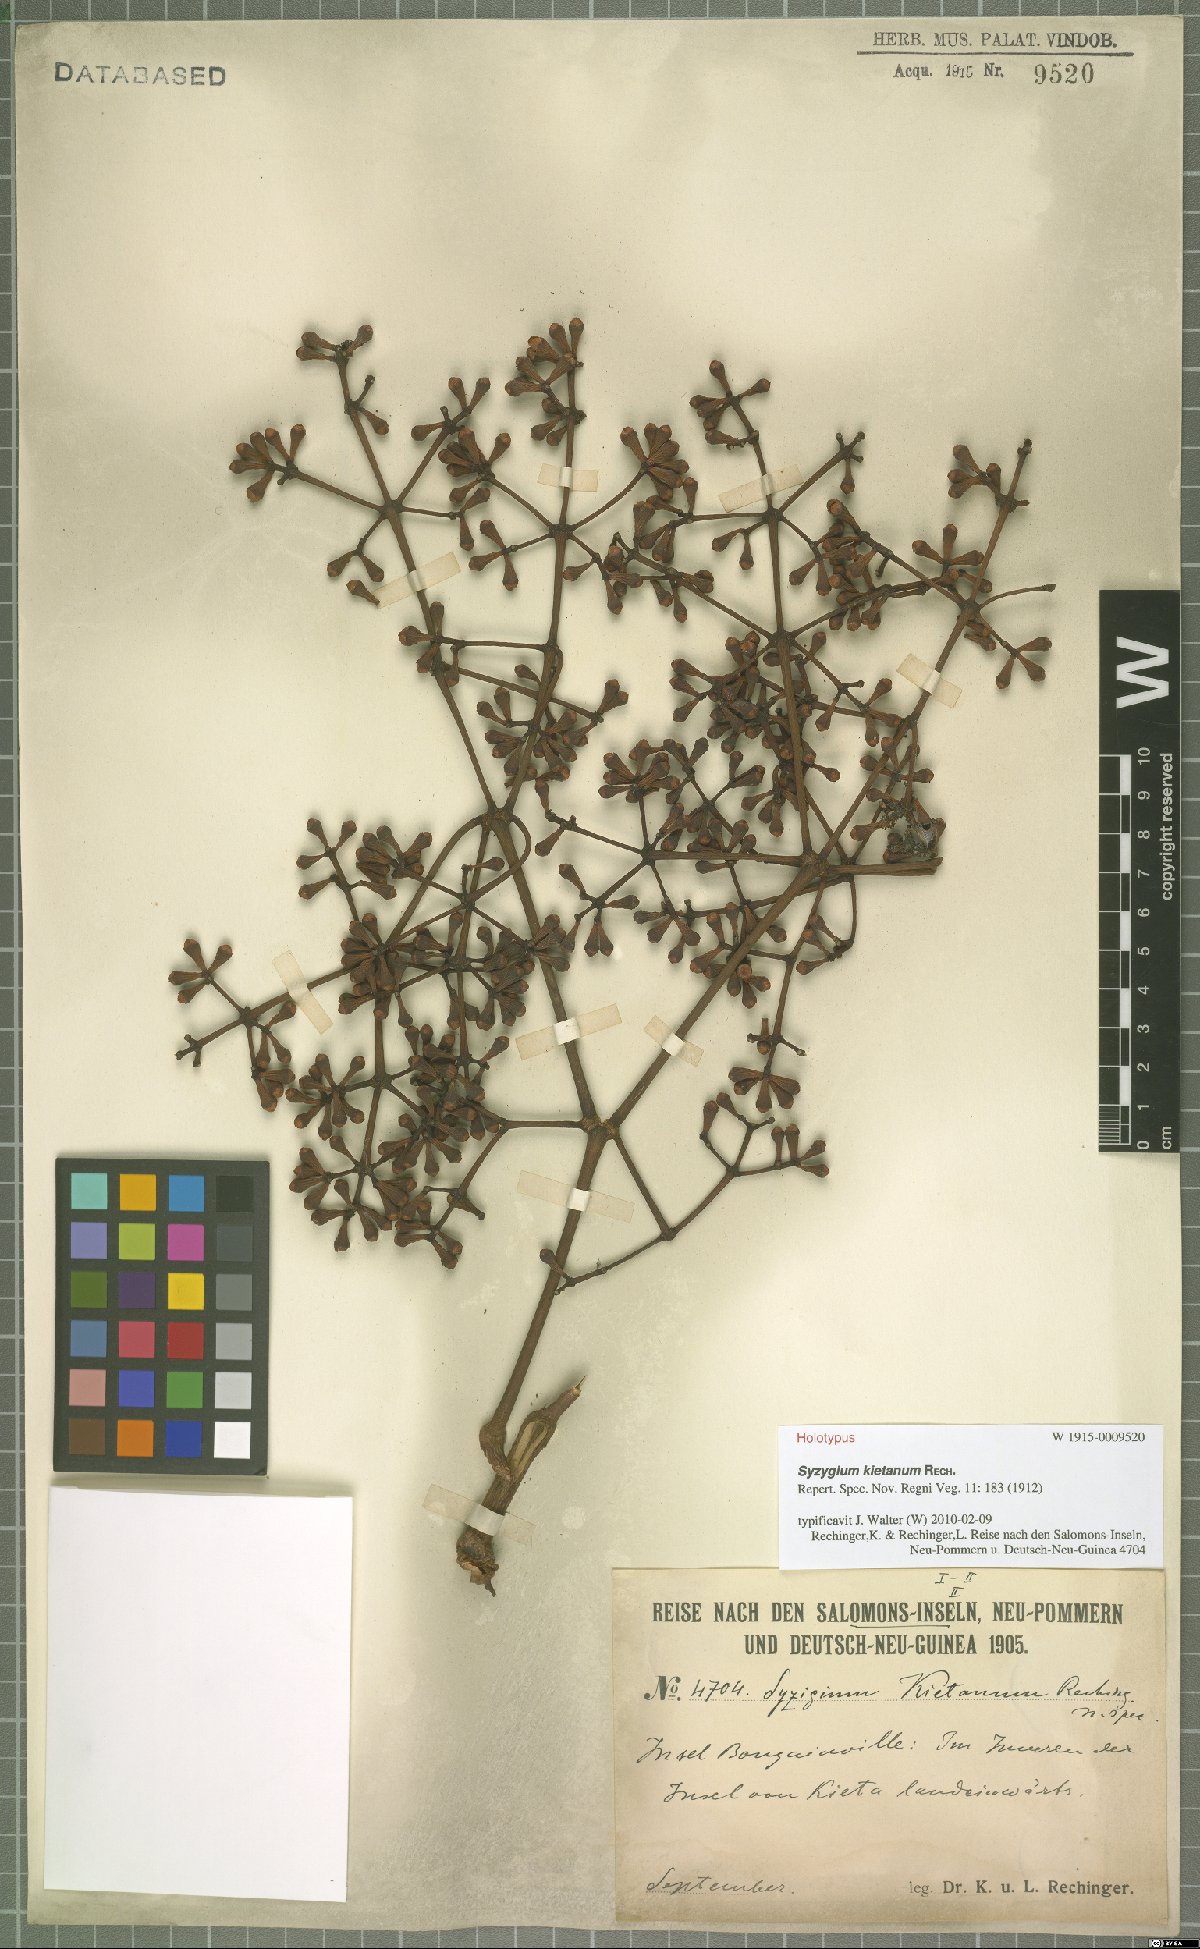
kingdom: Plantae
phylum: Tracheophyta
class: Magnoliopsida
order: Myrtales
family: Myrtaceae
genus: Syzygium
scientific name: Syzygium kietanum
